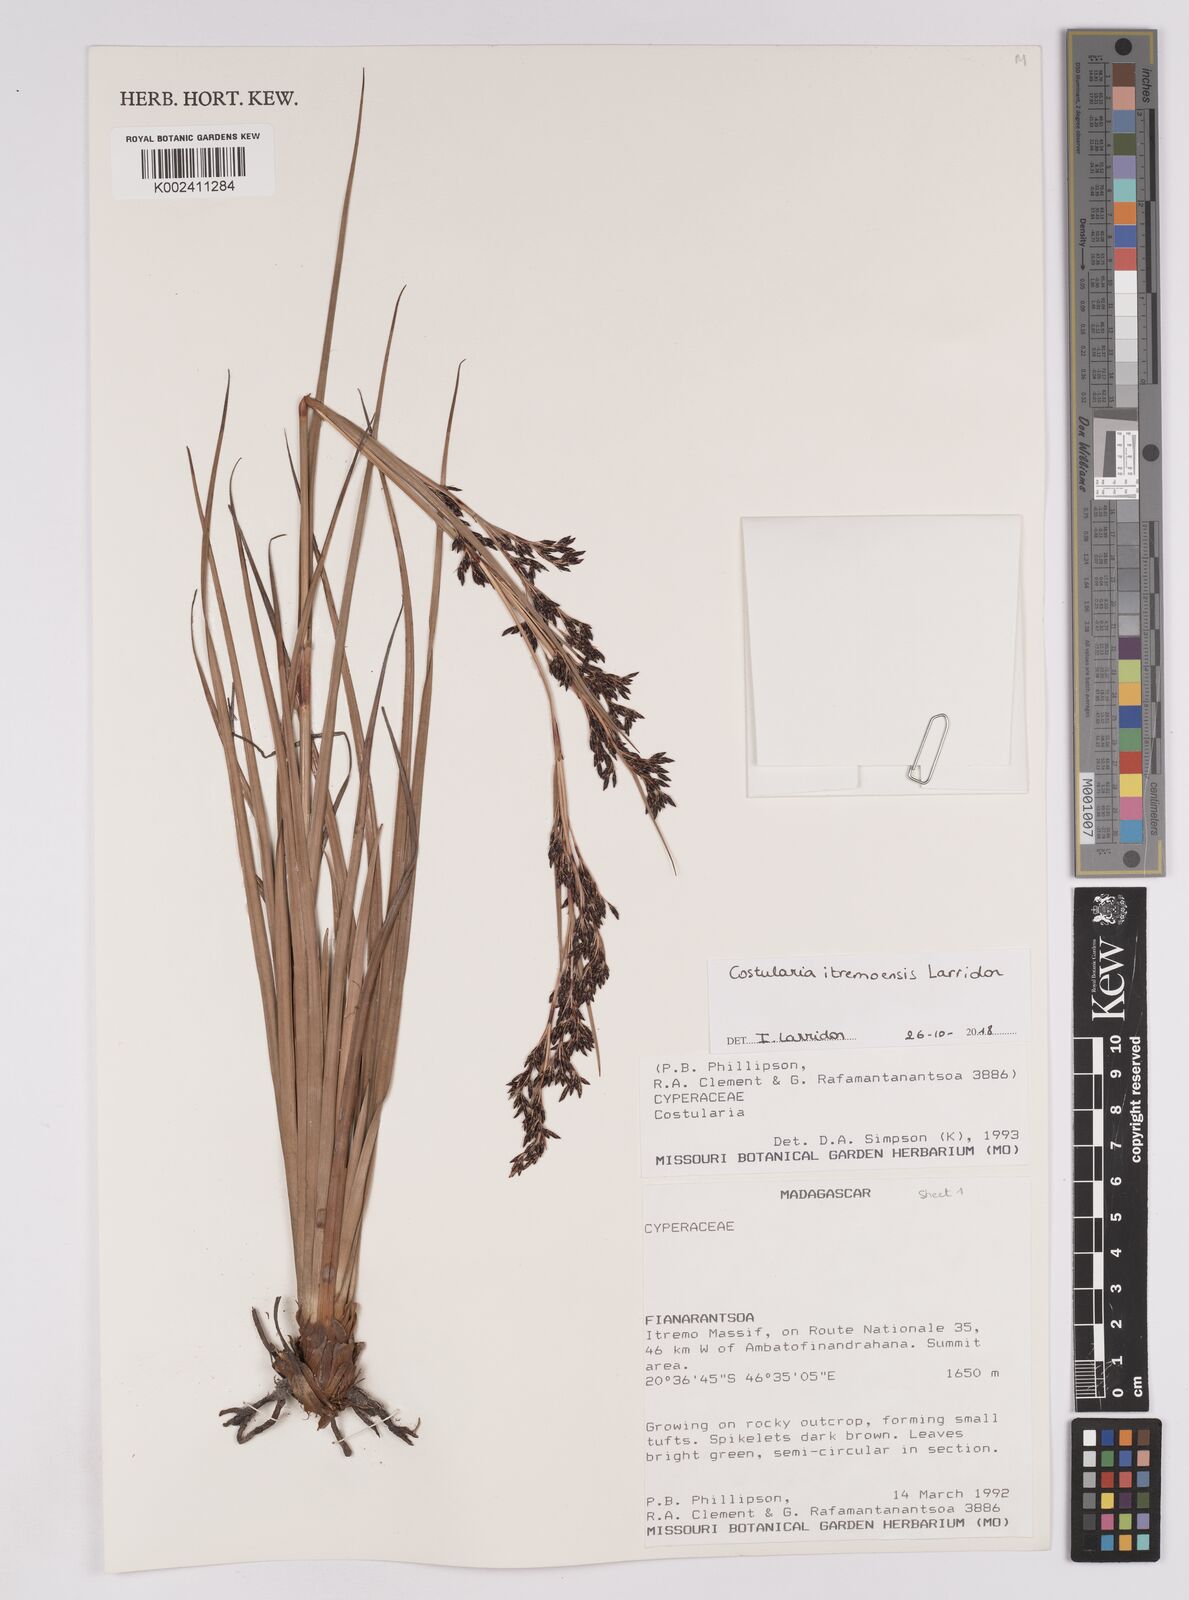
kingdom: Plantae
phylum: Tracheophyta
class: Liliopsida
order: Poales
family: Cyperaceae
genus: Costularia
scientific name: Costularia itremoensis
